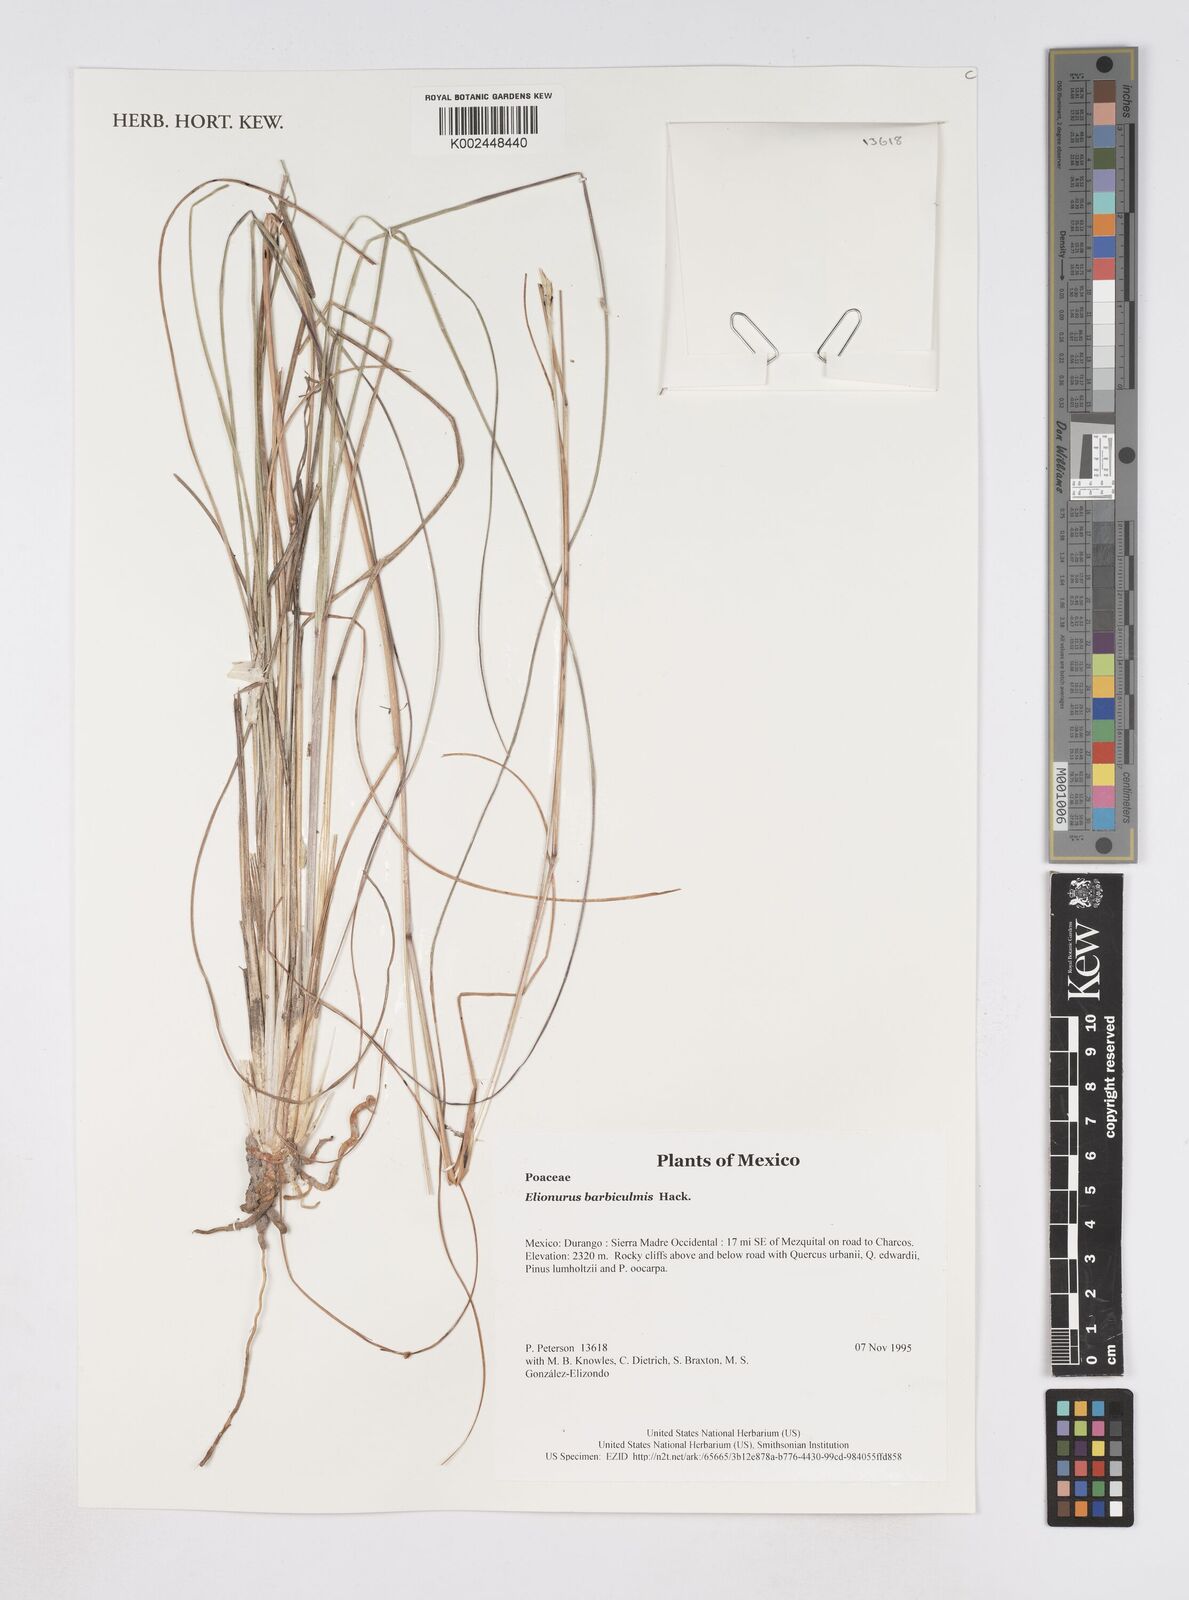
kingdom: Plantae
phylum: Tracheophyta
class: Liliopsida
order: Poales
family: Poaceae
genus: Elionurus
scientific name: Elionurus barbiculmis
